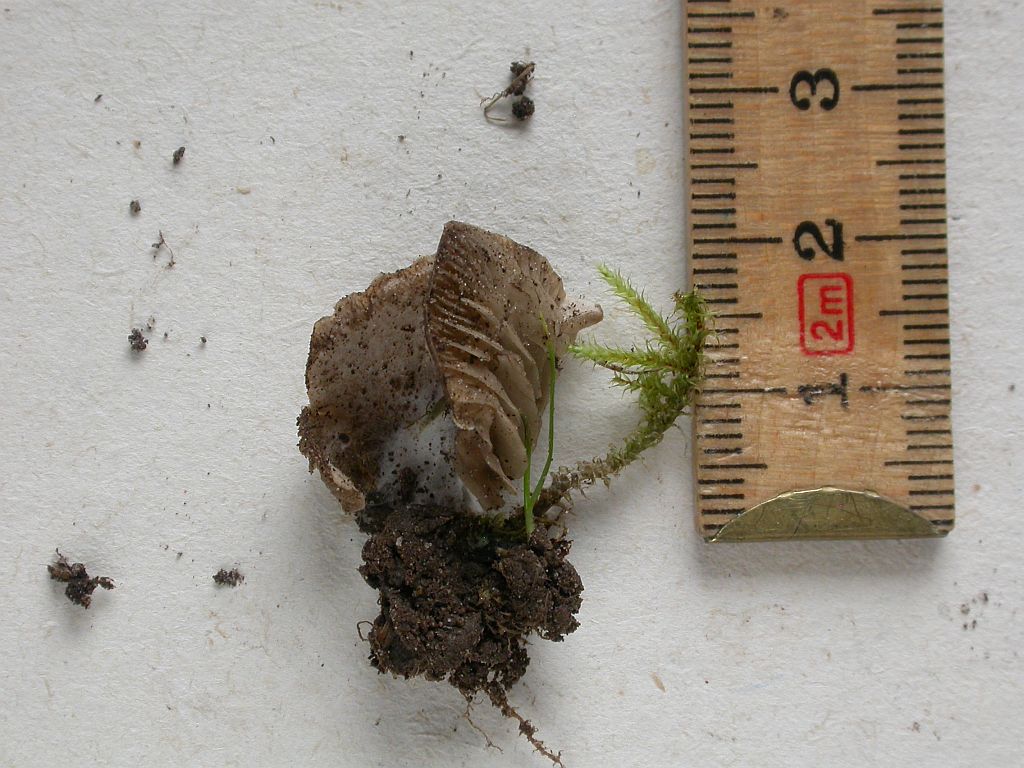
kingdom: Fungi
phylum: Basidiomycota
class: Agaricomycetes
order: Agaricales
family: Hygrophoraceae
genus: Arrhenia
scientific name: Arrhenia acerosa
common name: muslinge-fontænehat
